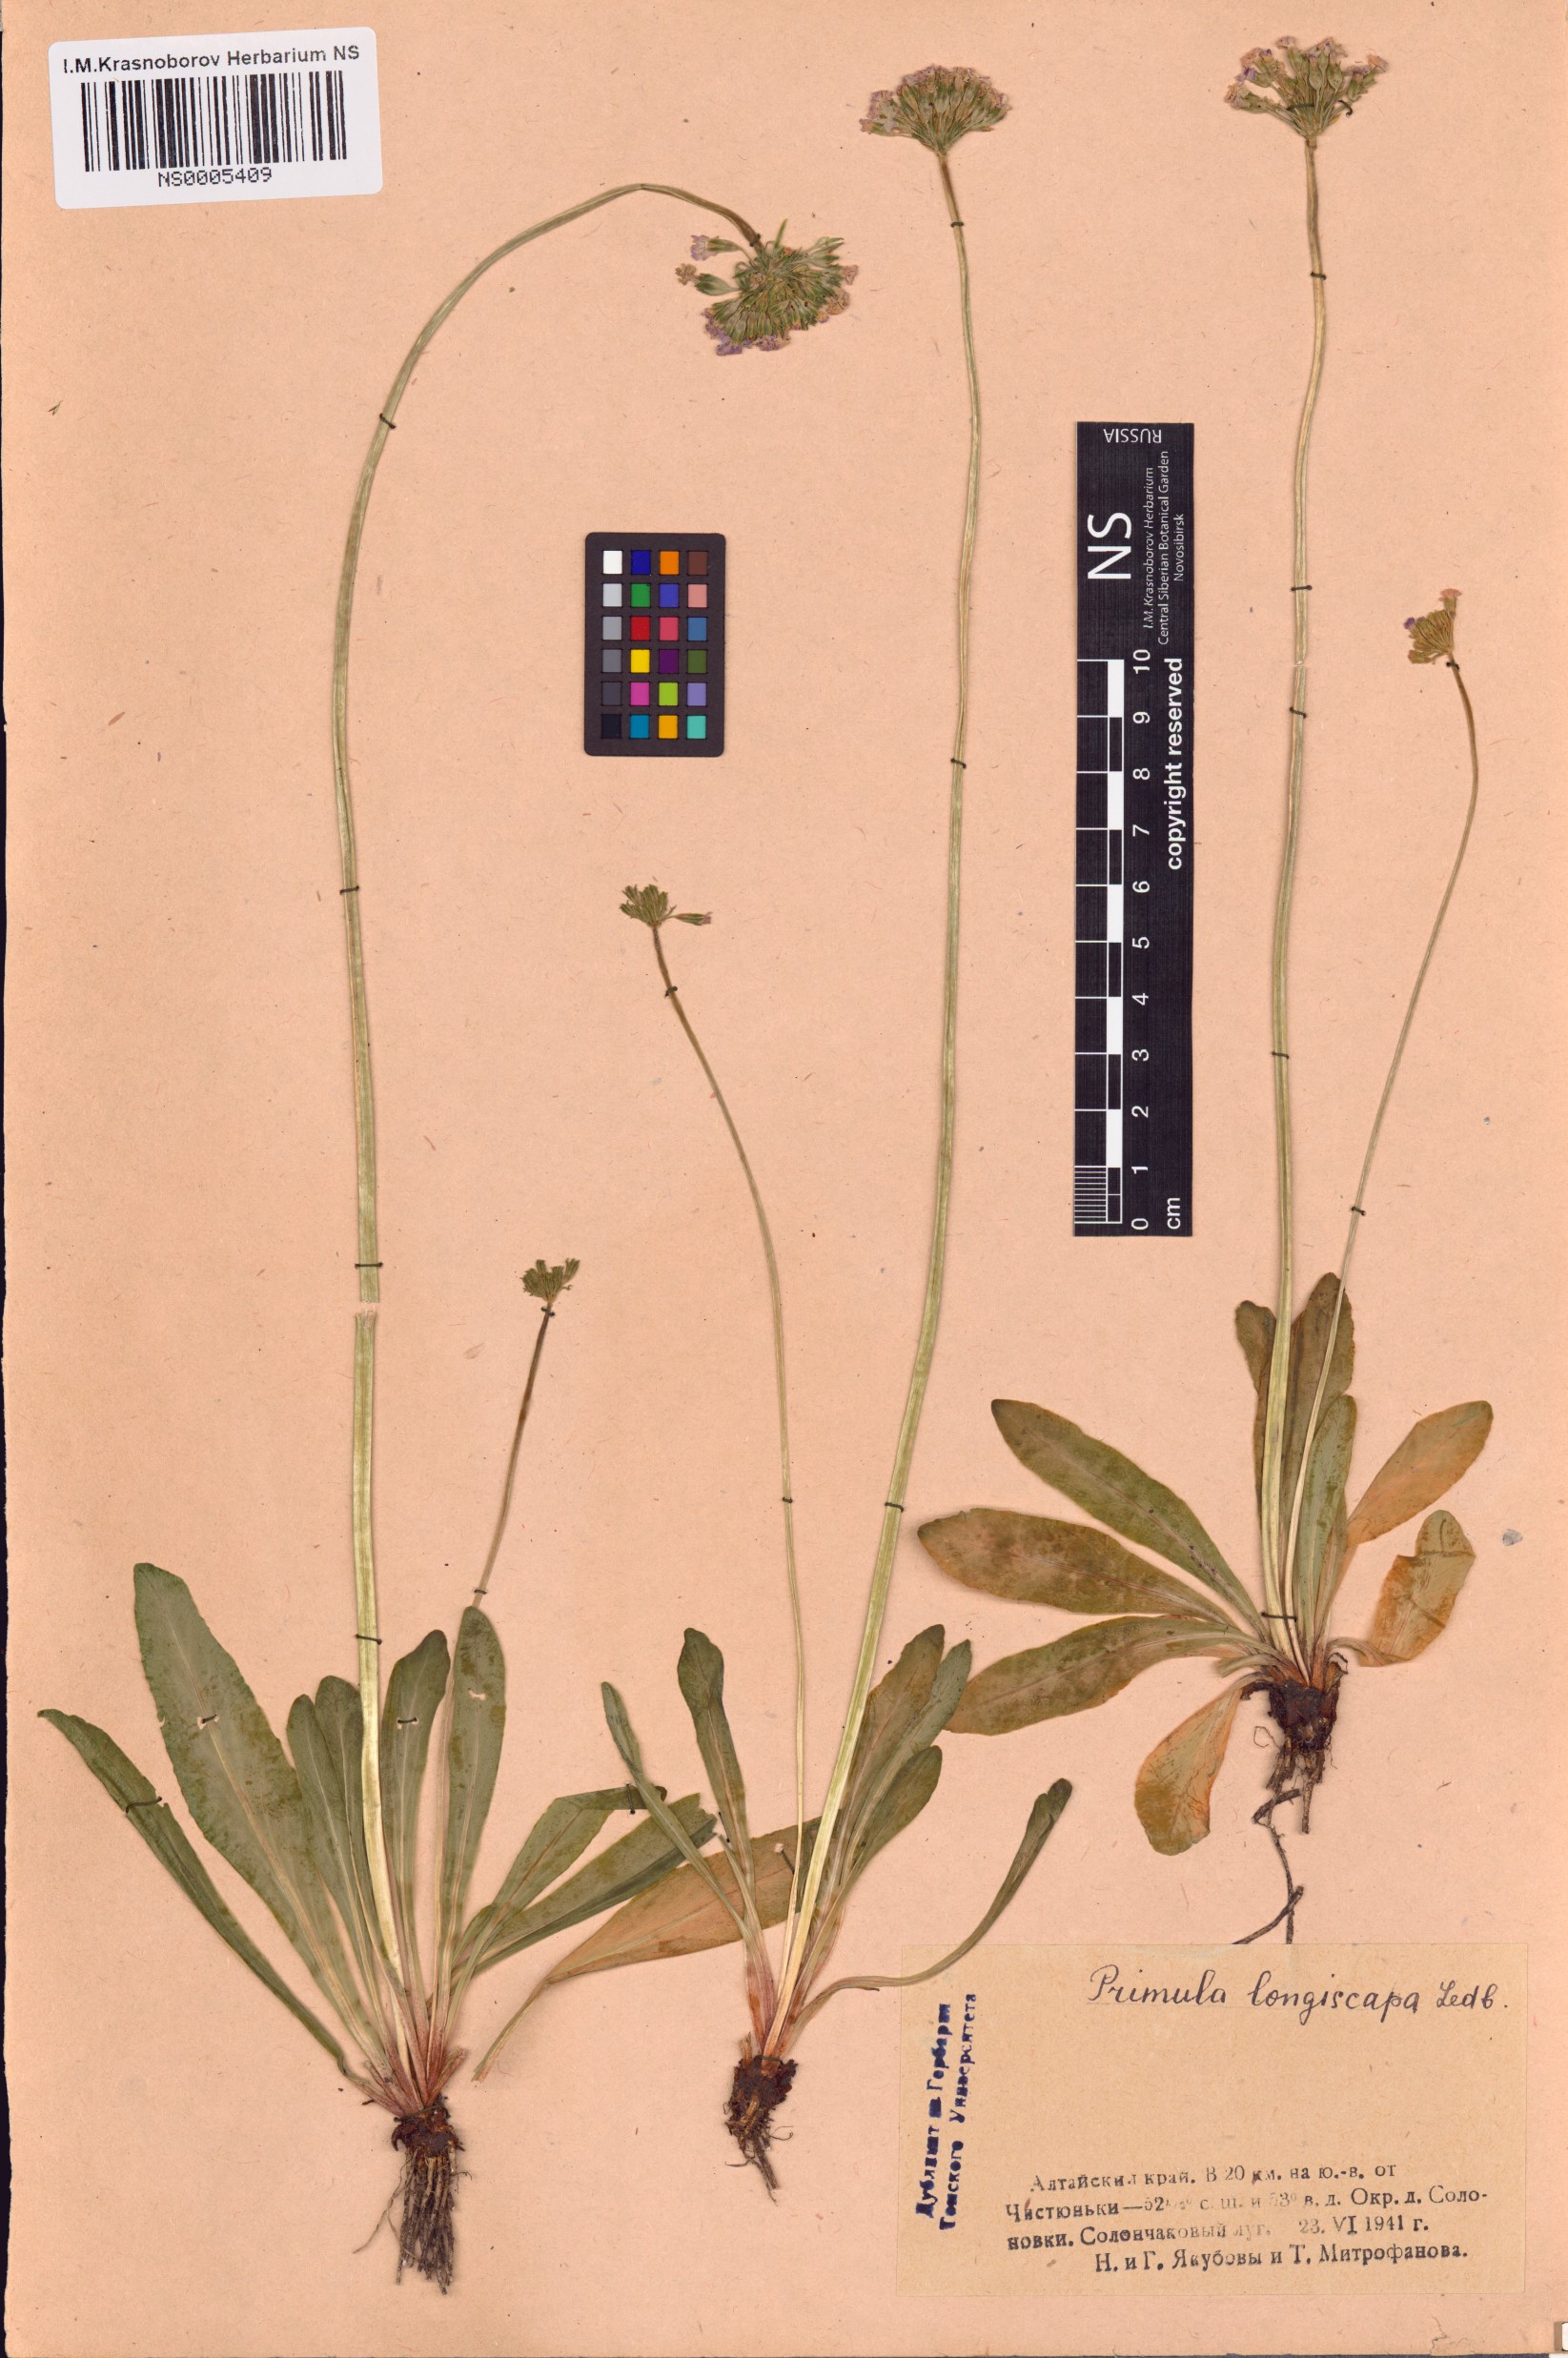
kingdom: Plantae
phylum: Tracheophyta
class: Magnoliopsida
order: Ericales
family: Primulaceae
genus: Primula
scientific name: Primula longiscapa
